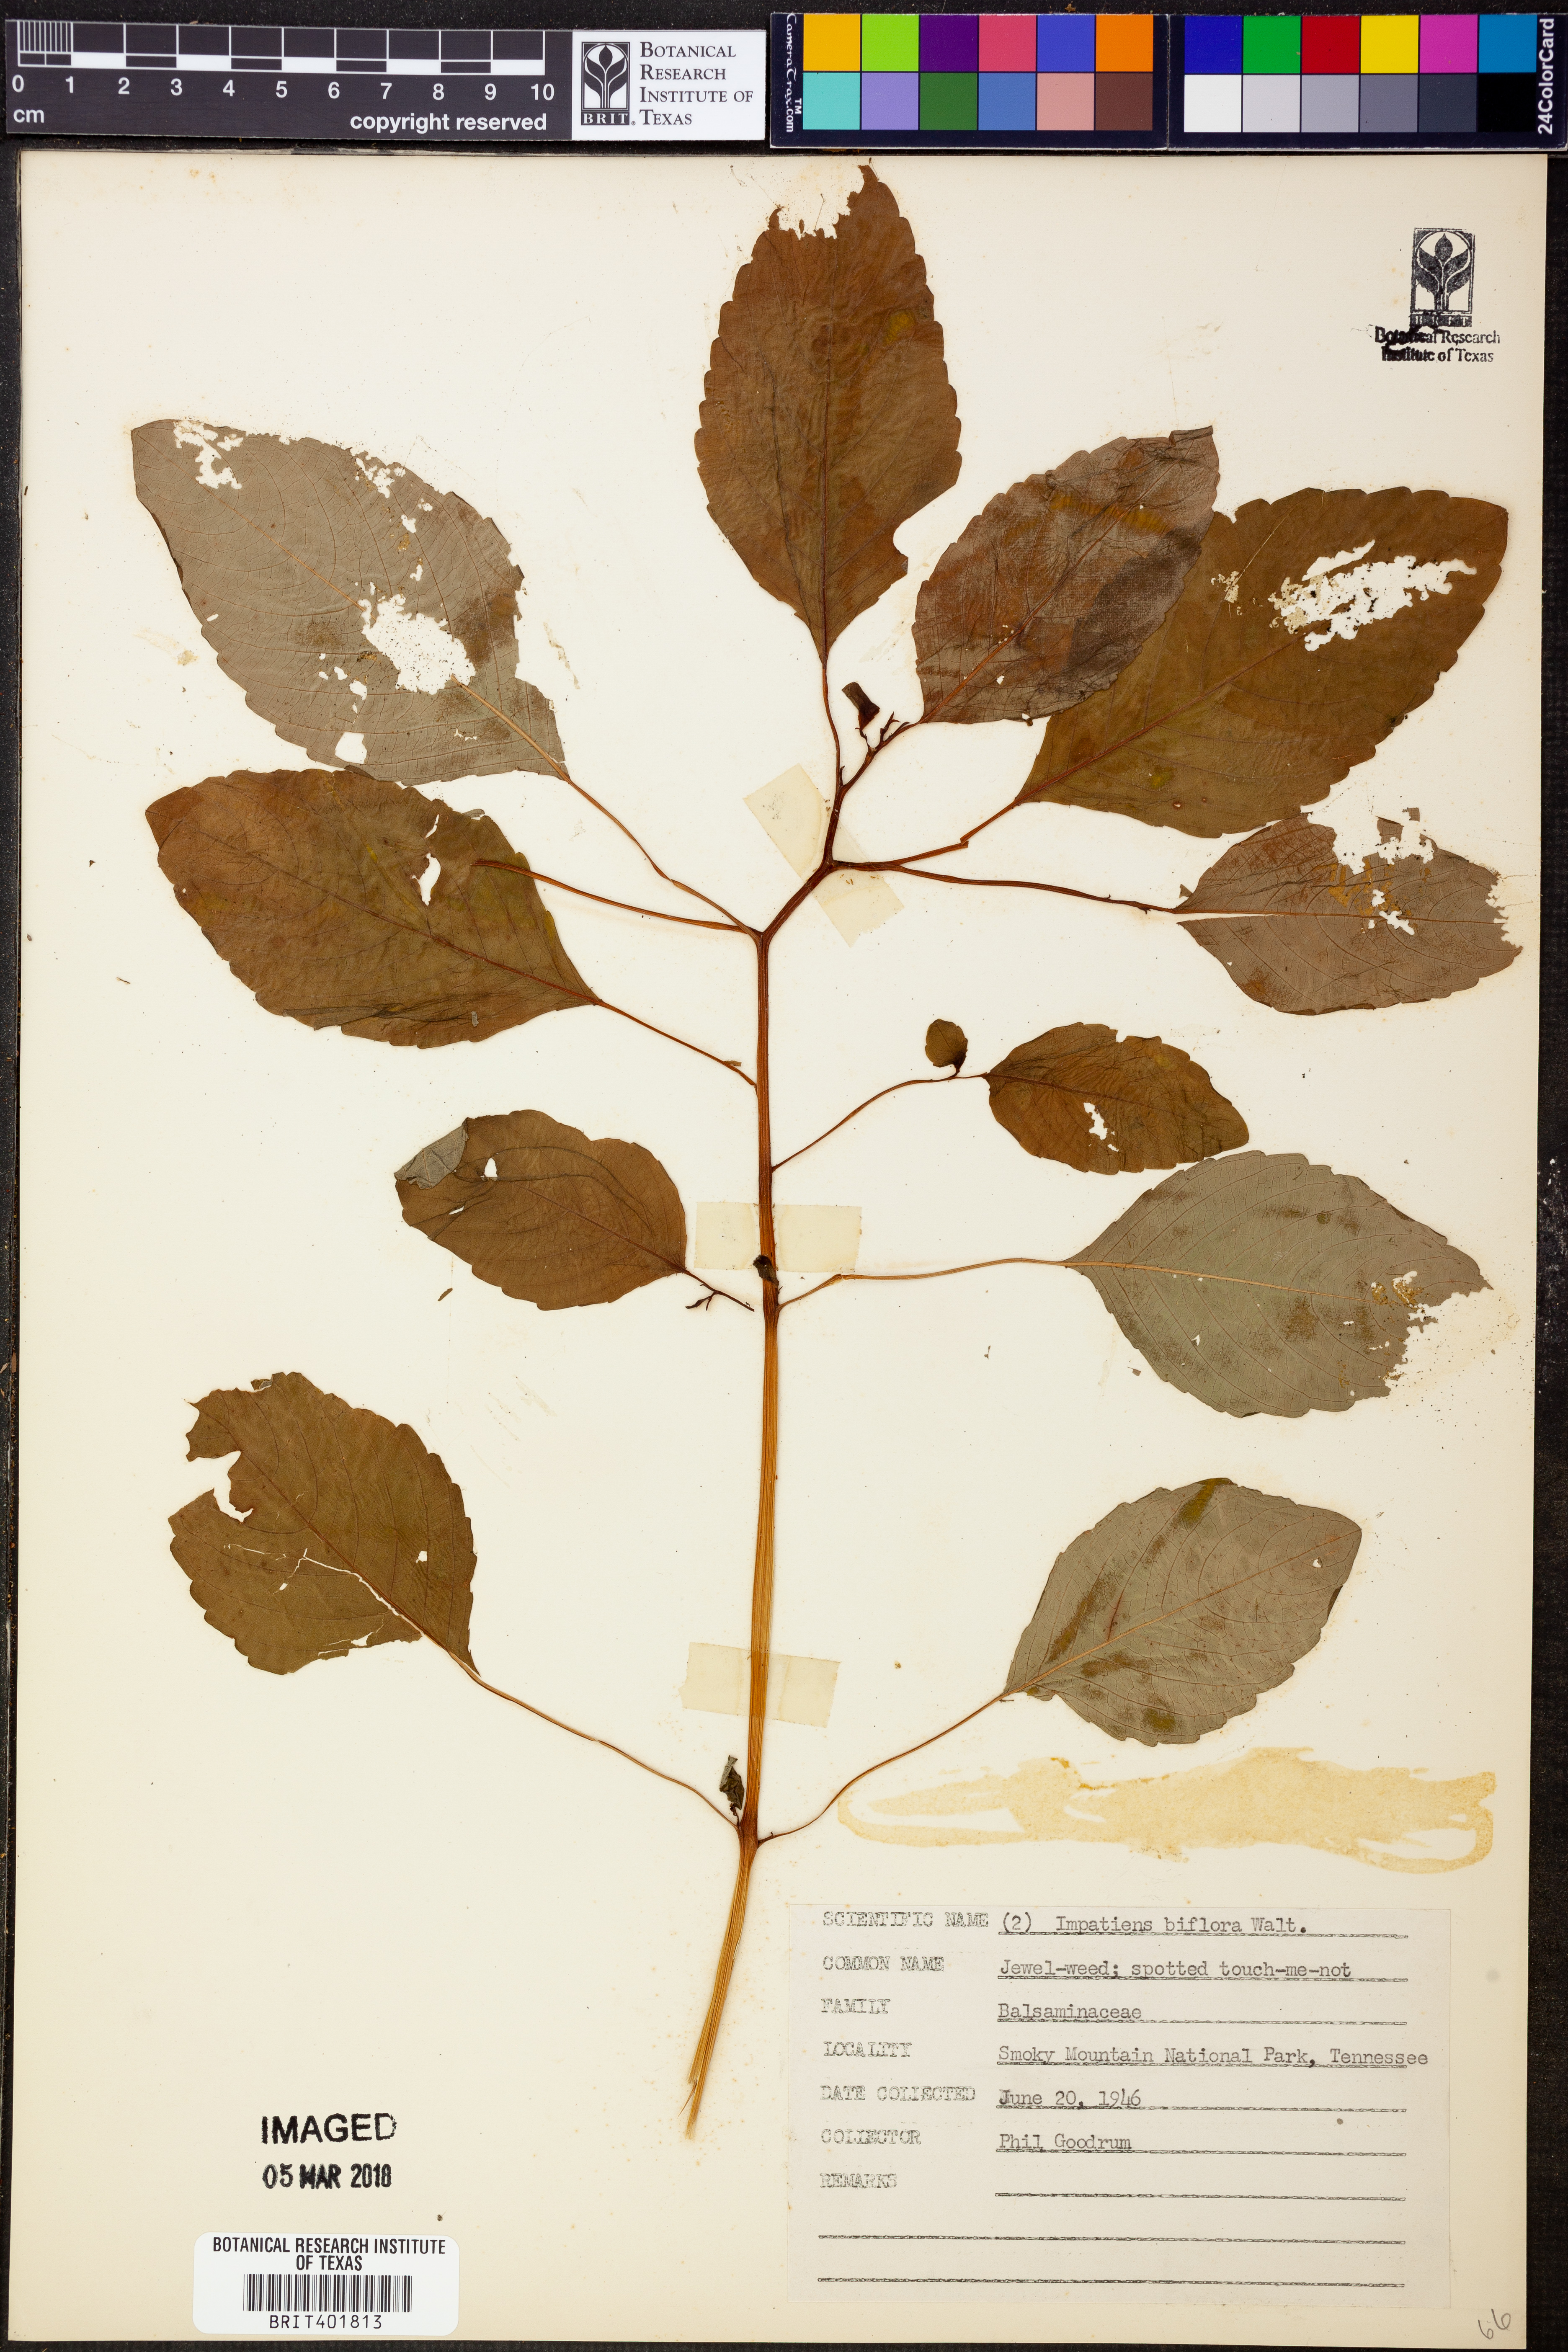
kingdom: Plantae
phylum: Tracheophyta
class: Magnoliopsida
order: Ericales
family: Balsaminaceae
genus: Impatiens
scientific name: Impatiens capensis
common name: Orange balsam
